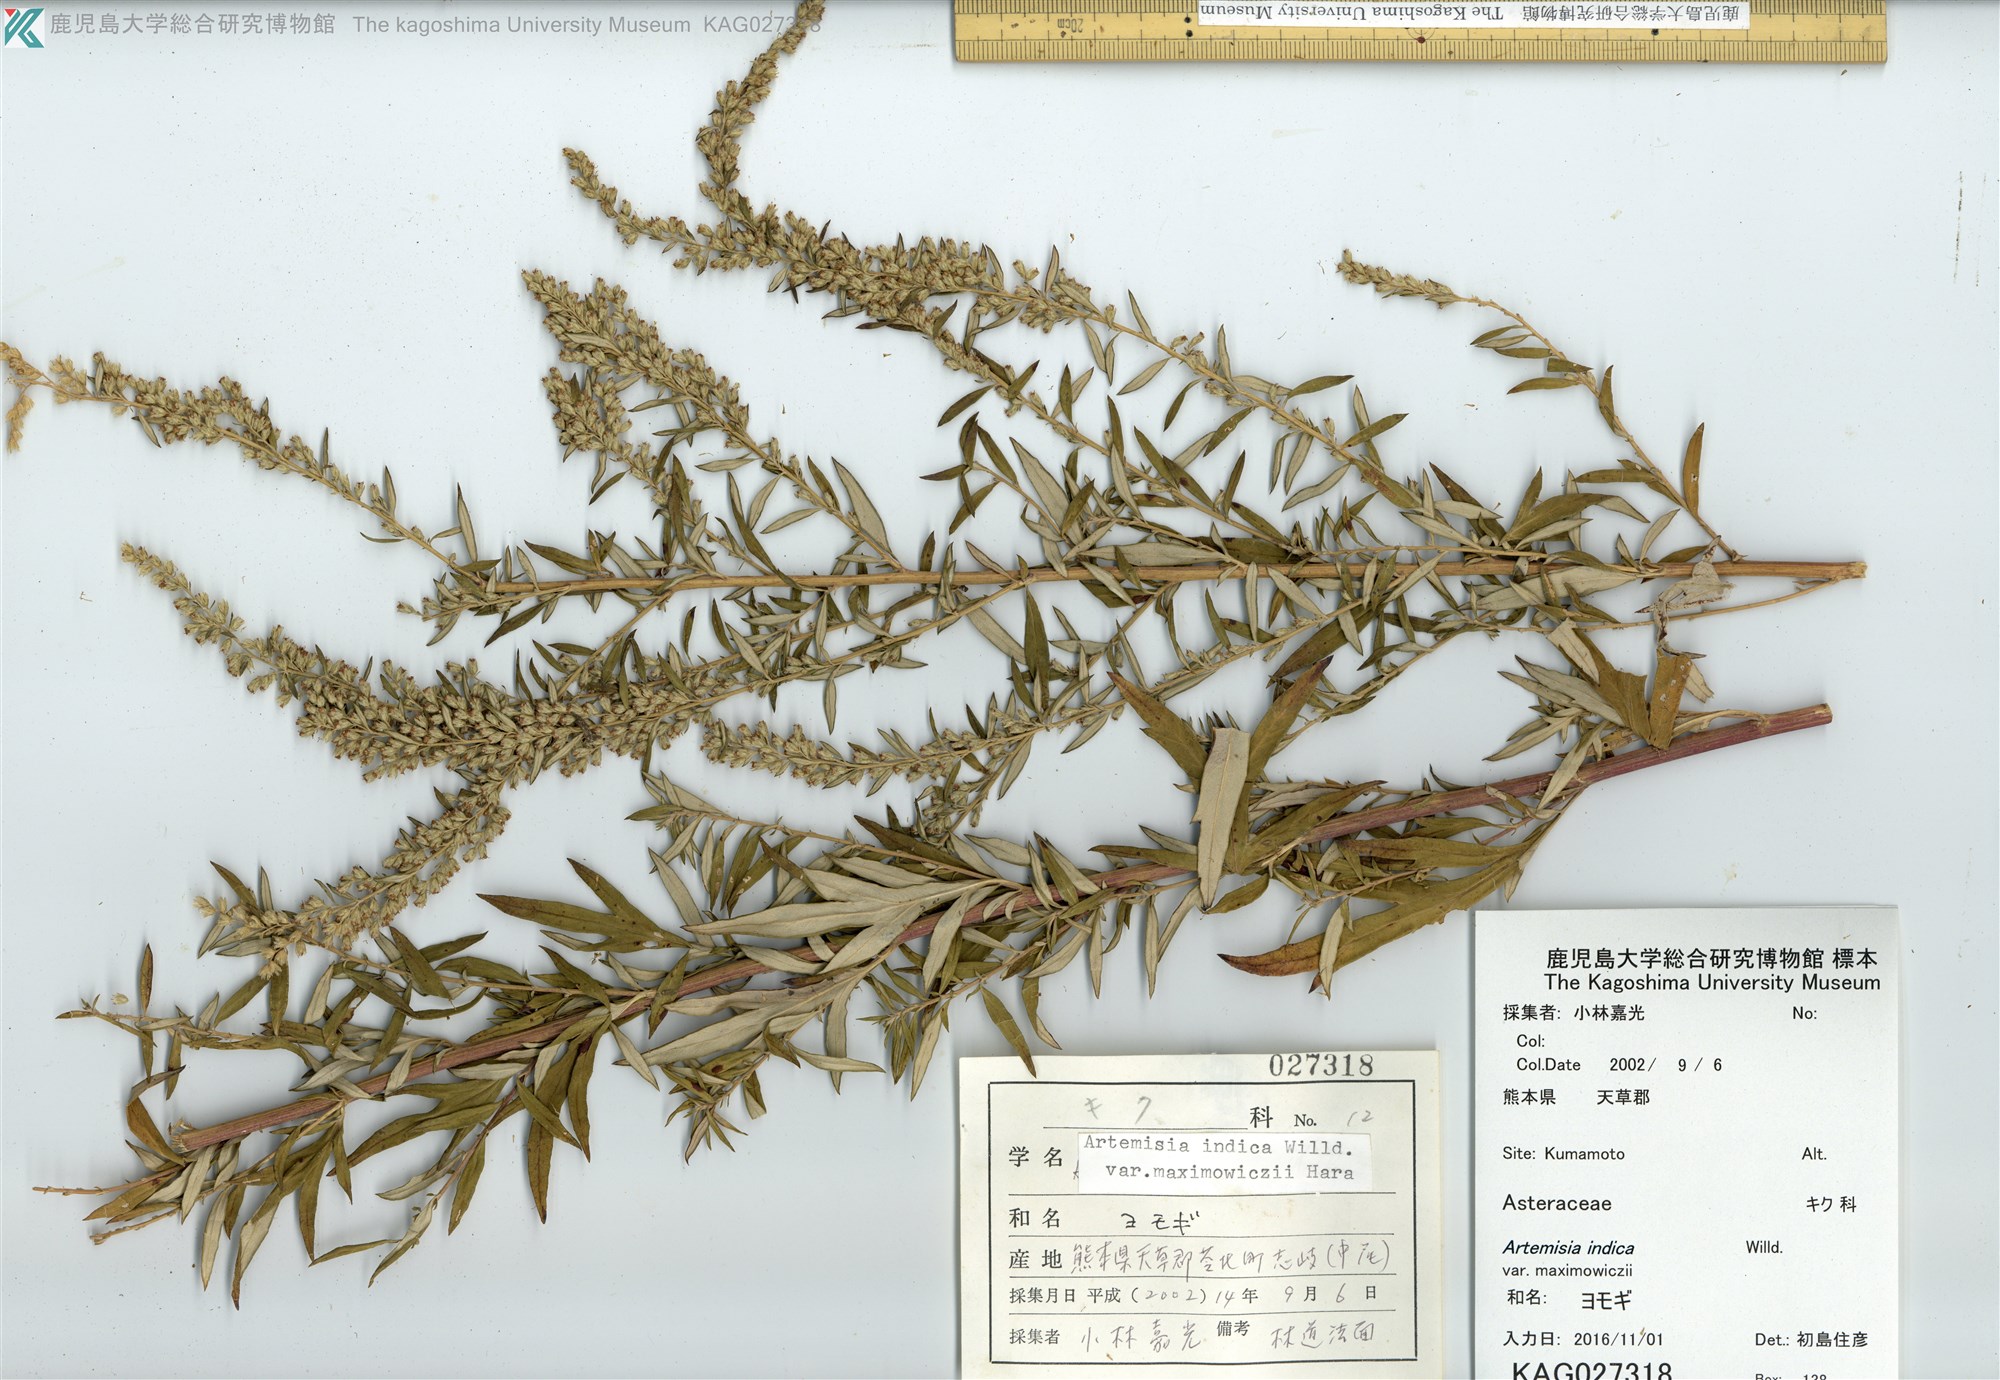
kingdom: Plantae
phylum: Tracheophyta
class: Magnoliopsida
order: Asterales
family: Asteraceae
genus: Artemisia
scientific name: Artemisia princeps
